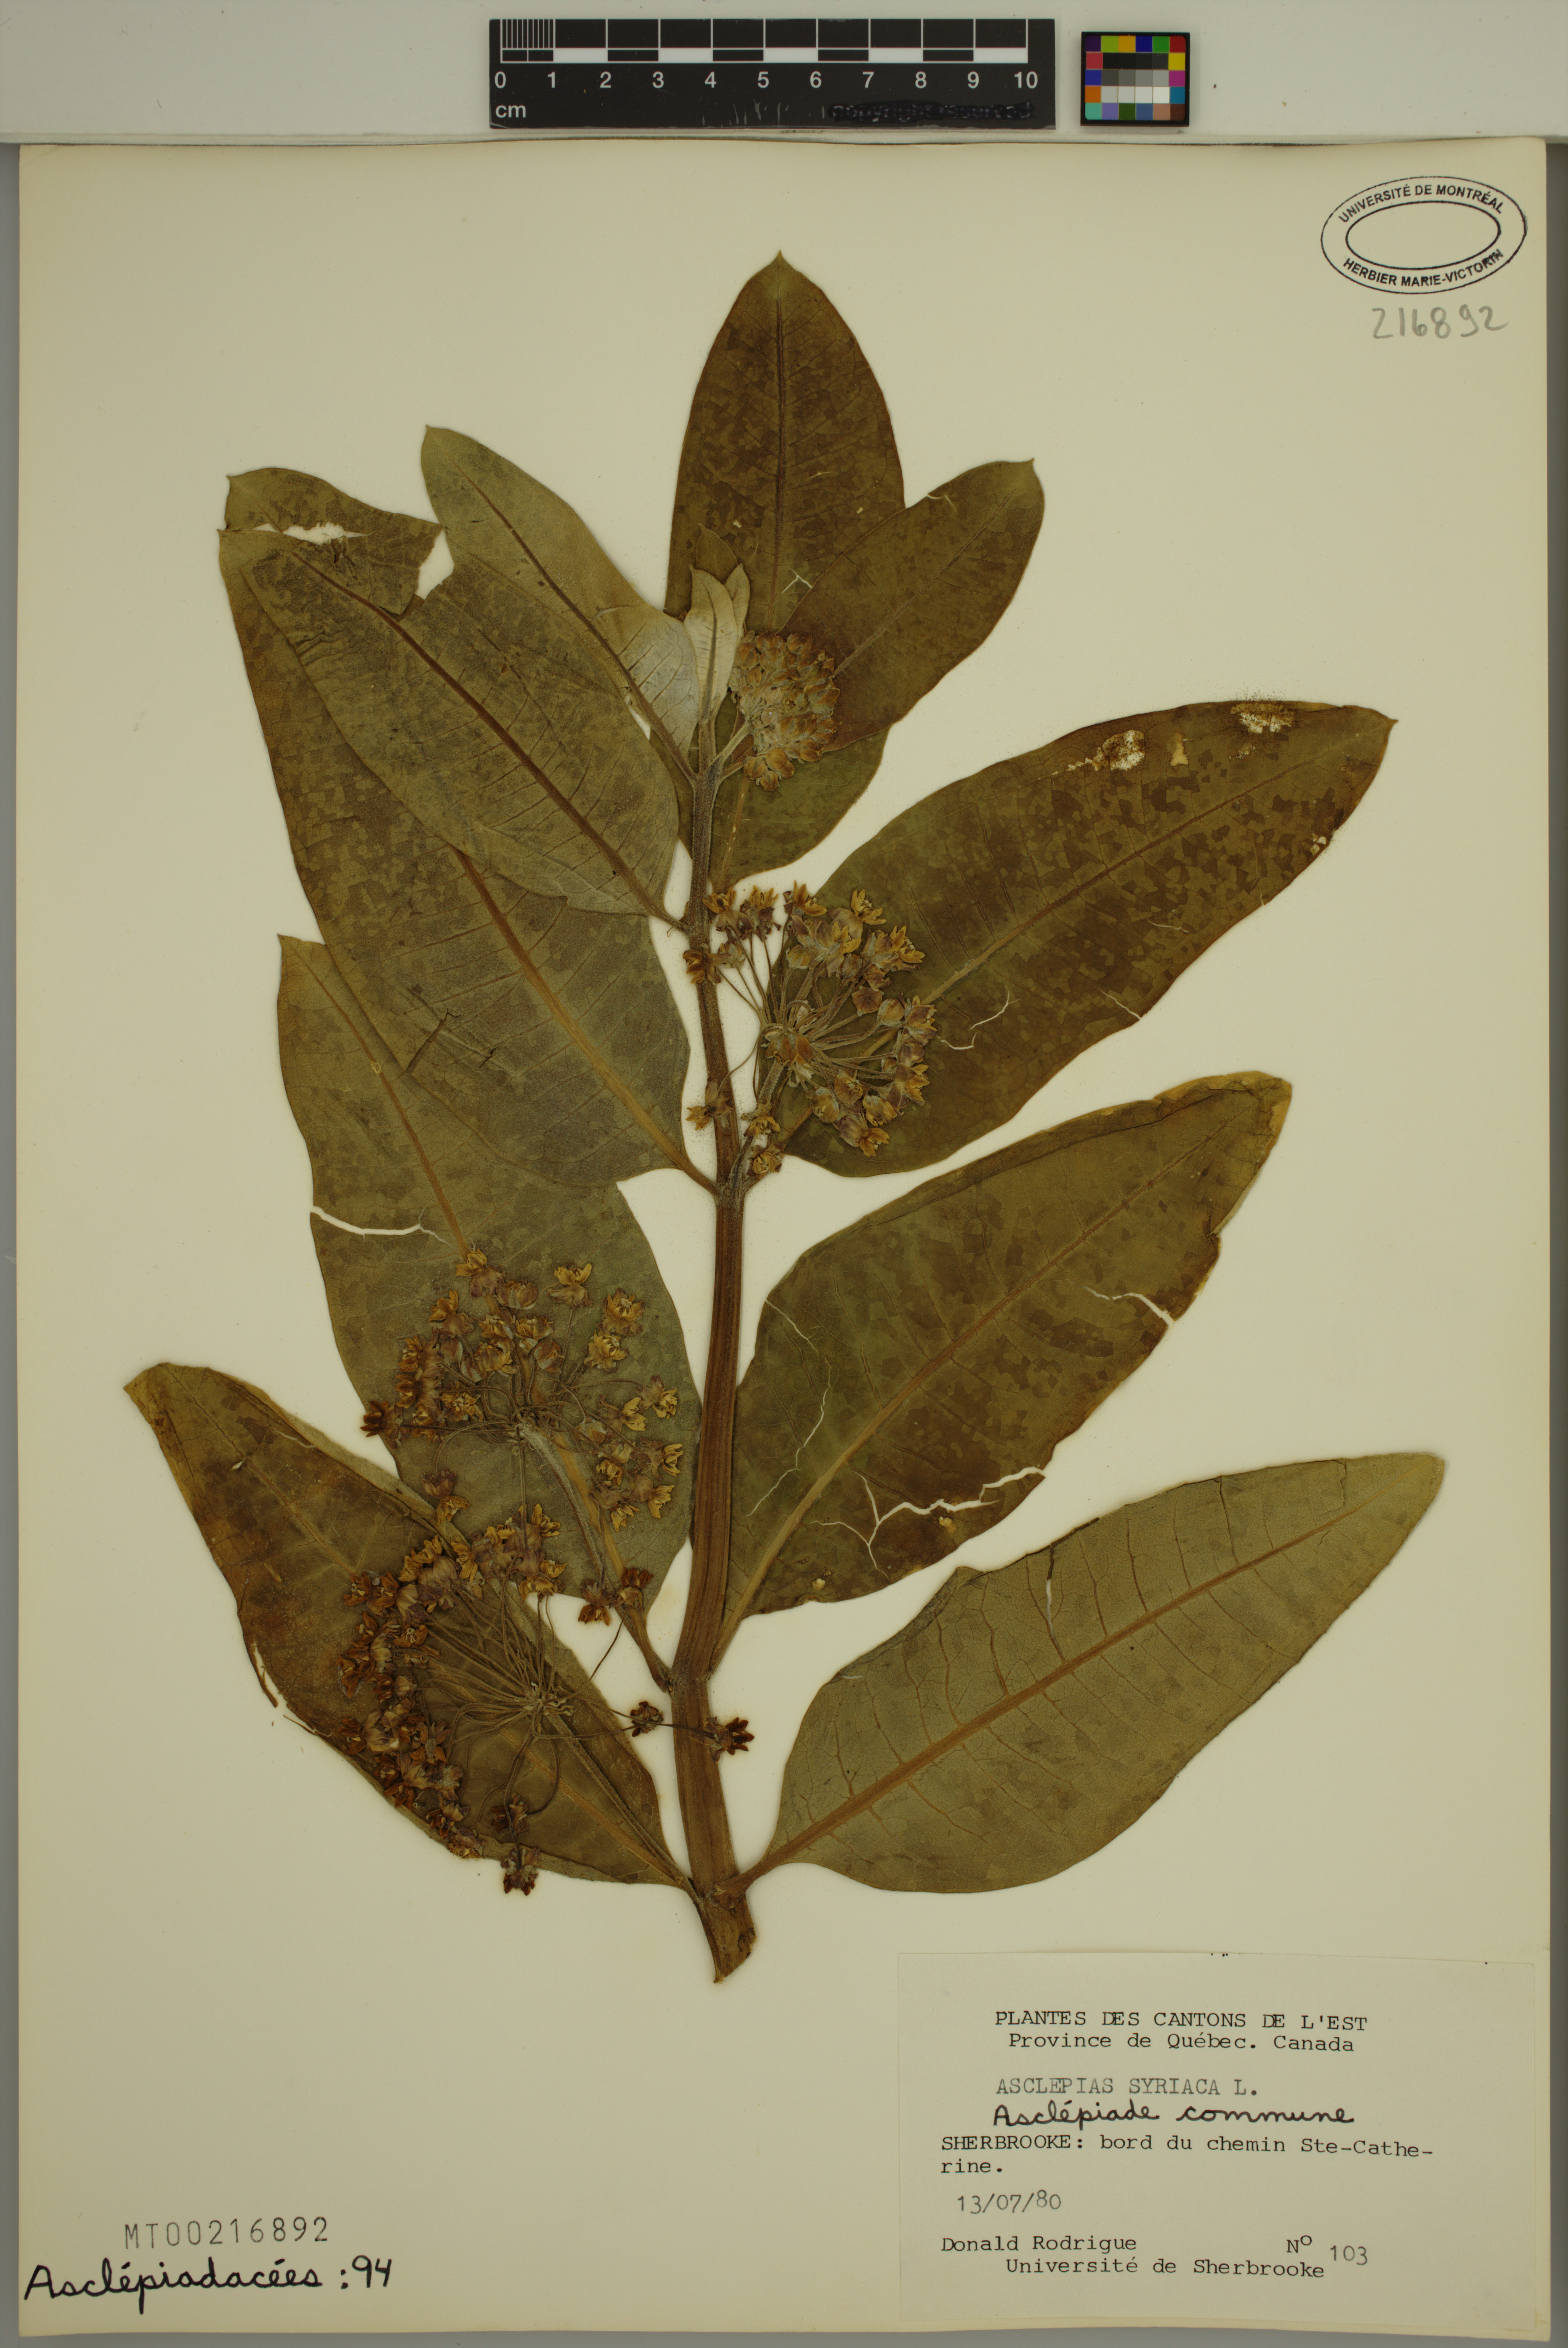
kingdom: Plantae
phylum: Tracheophyta
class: Magnoliopsida
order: Gentianales
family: Apocynaceae
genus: Asclepias
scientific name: Asclepias syriaca
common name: Common milkweed
